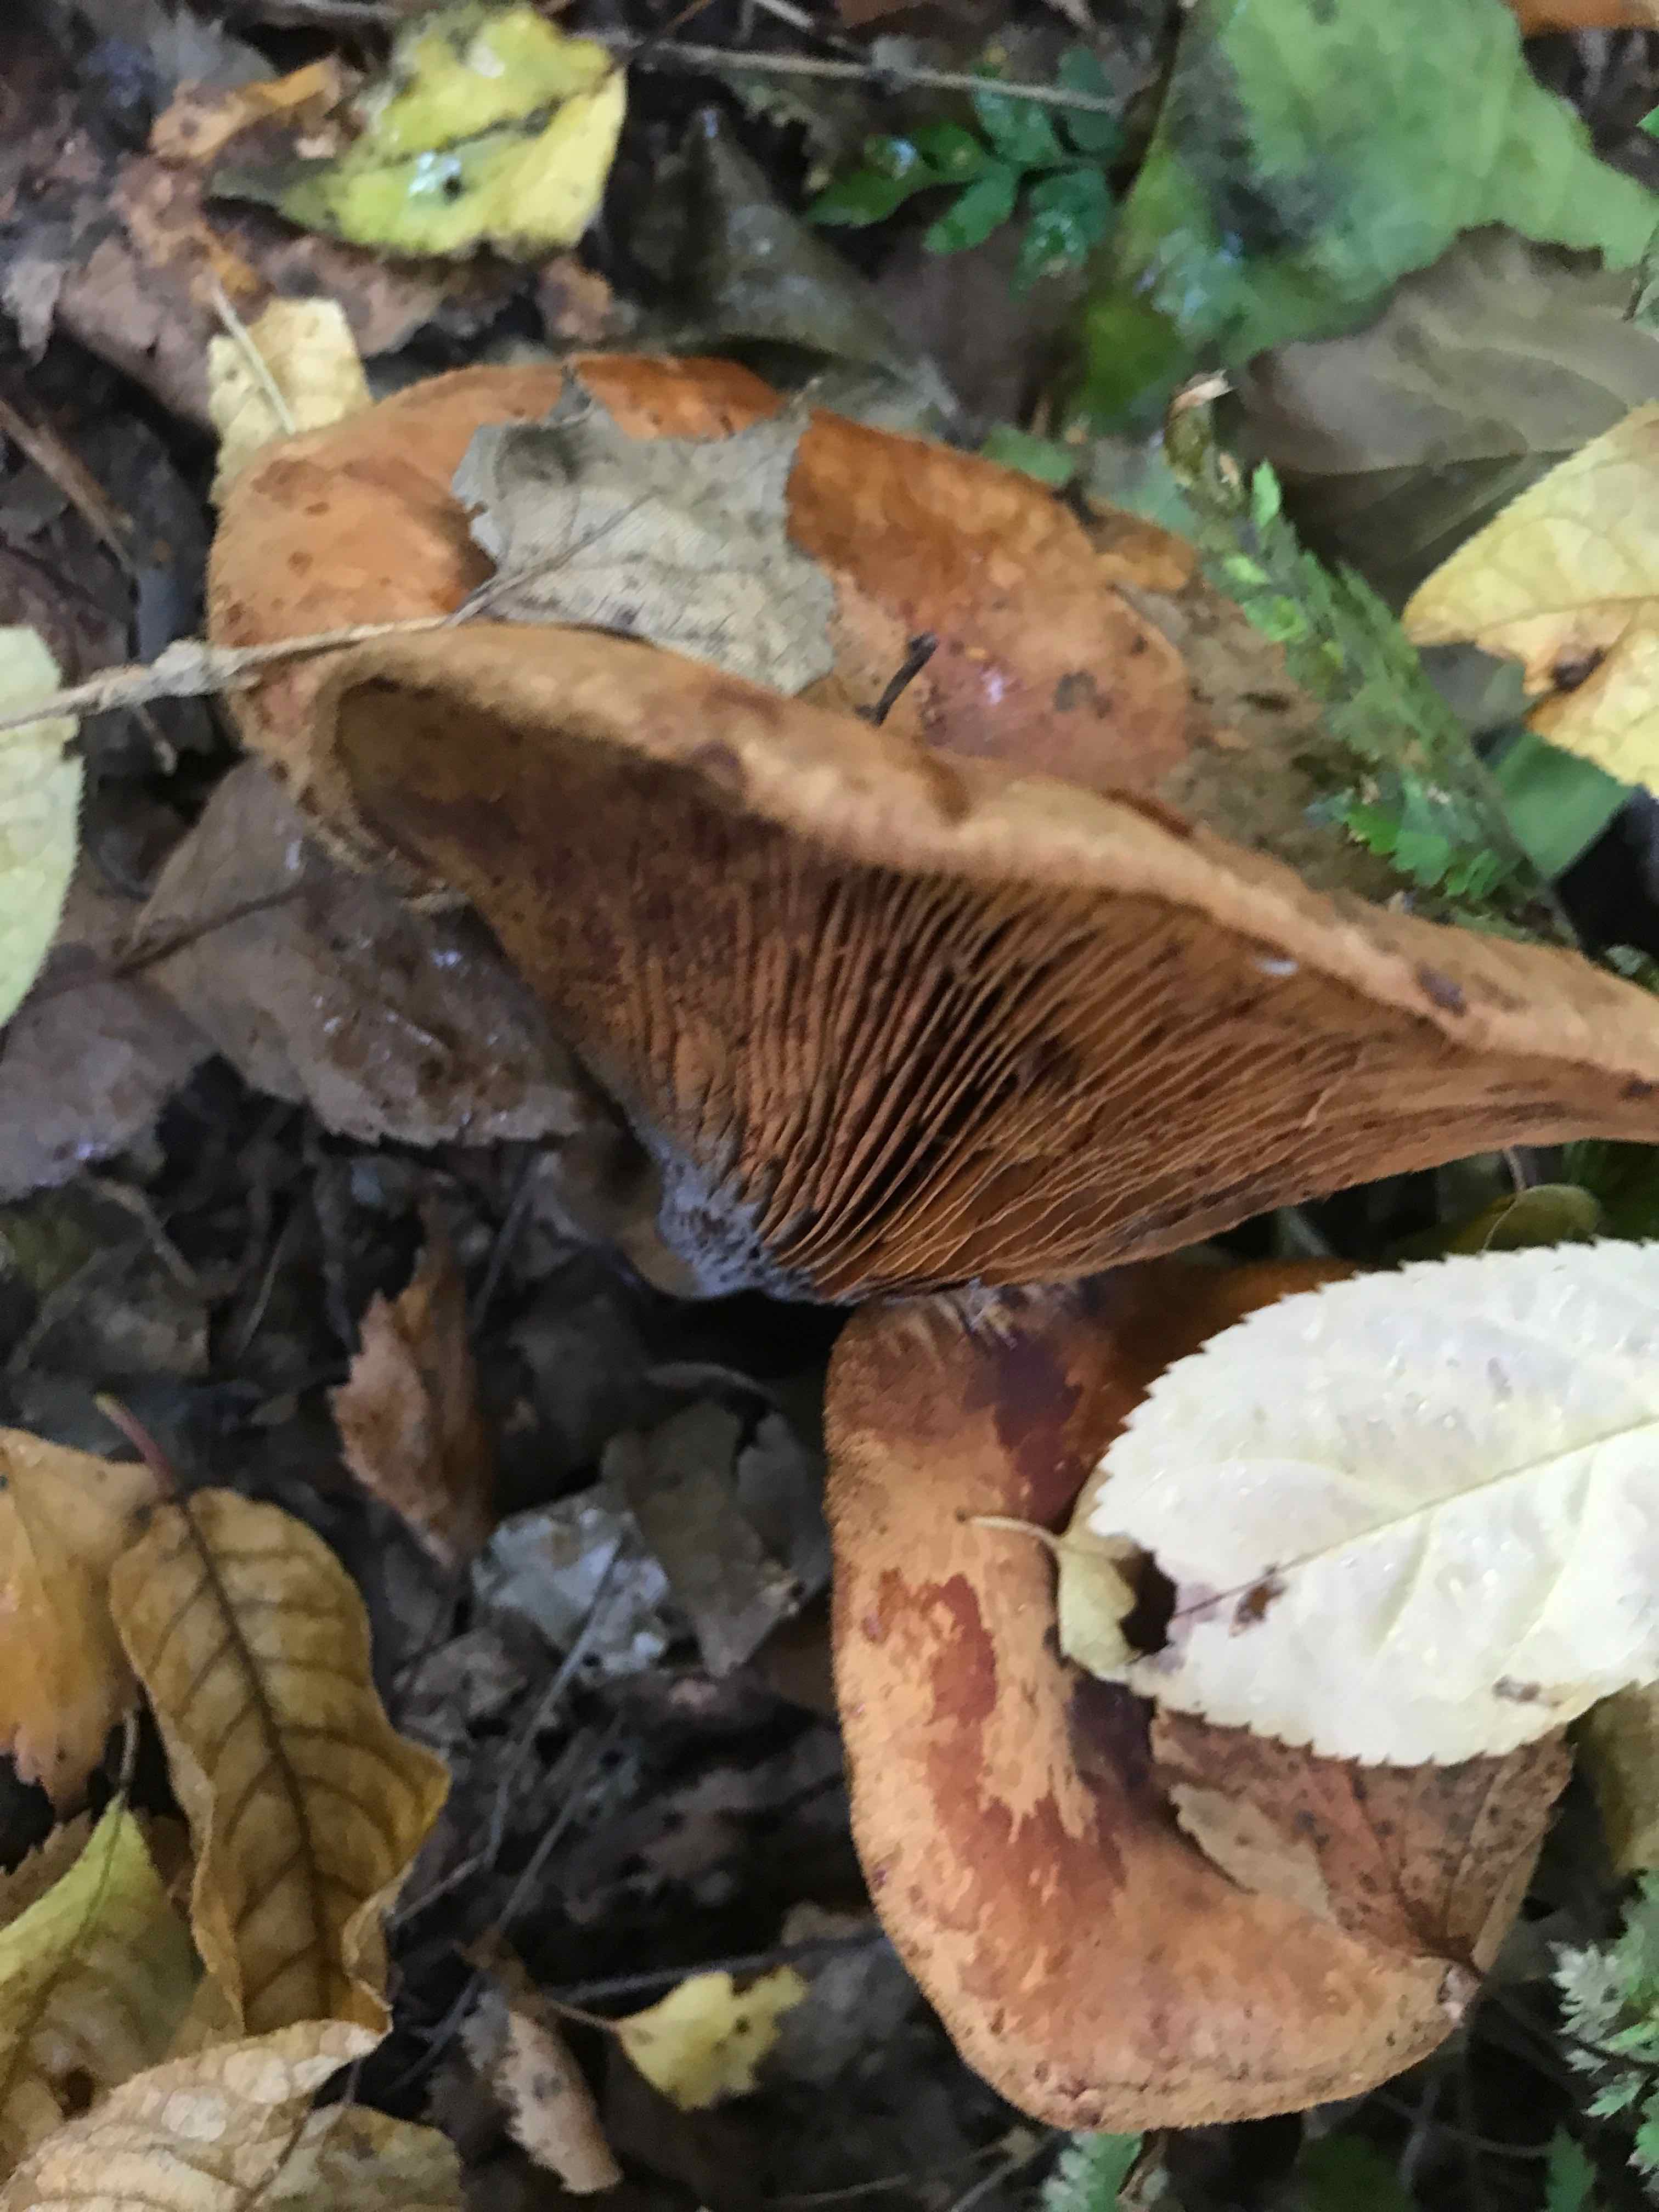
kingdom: Fungi
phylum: Basidiomycota
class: Agaricomycetes
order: Boletales
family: Paxillaceae
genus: Paxillus
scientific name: Paxillus involutus
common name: almindelig netbladhat
